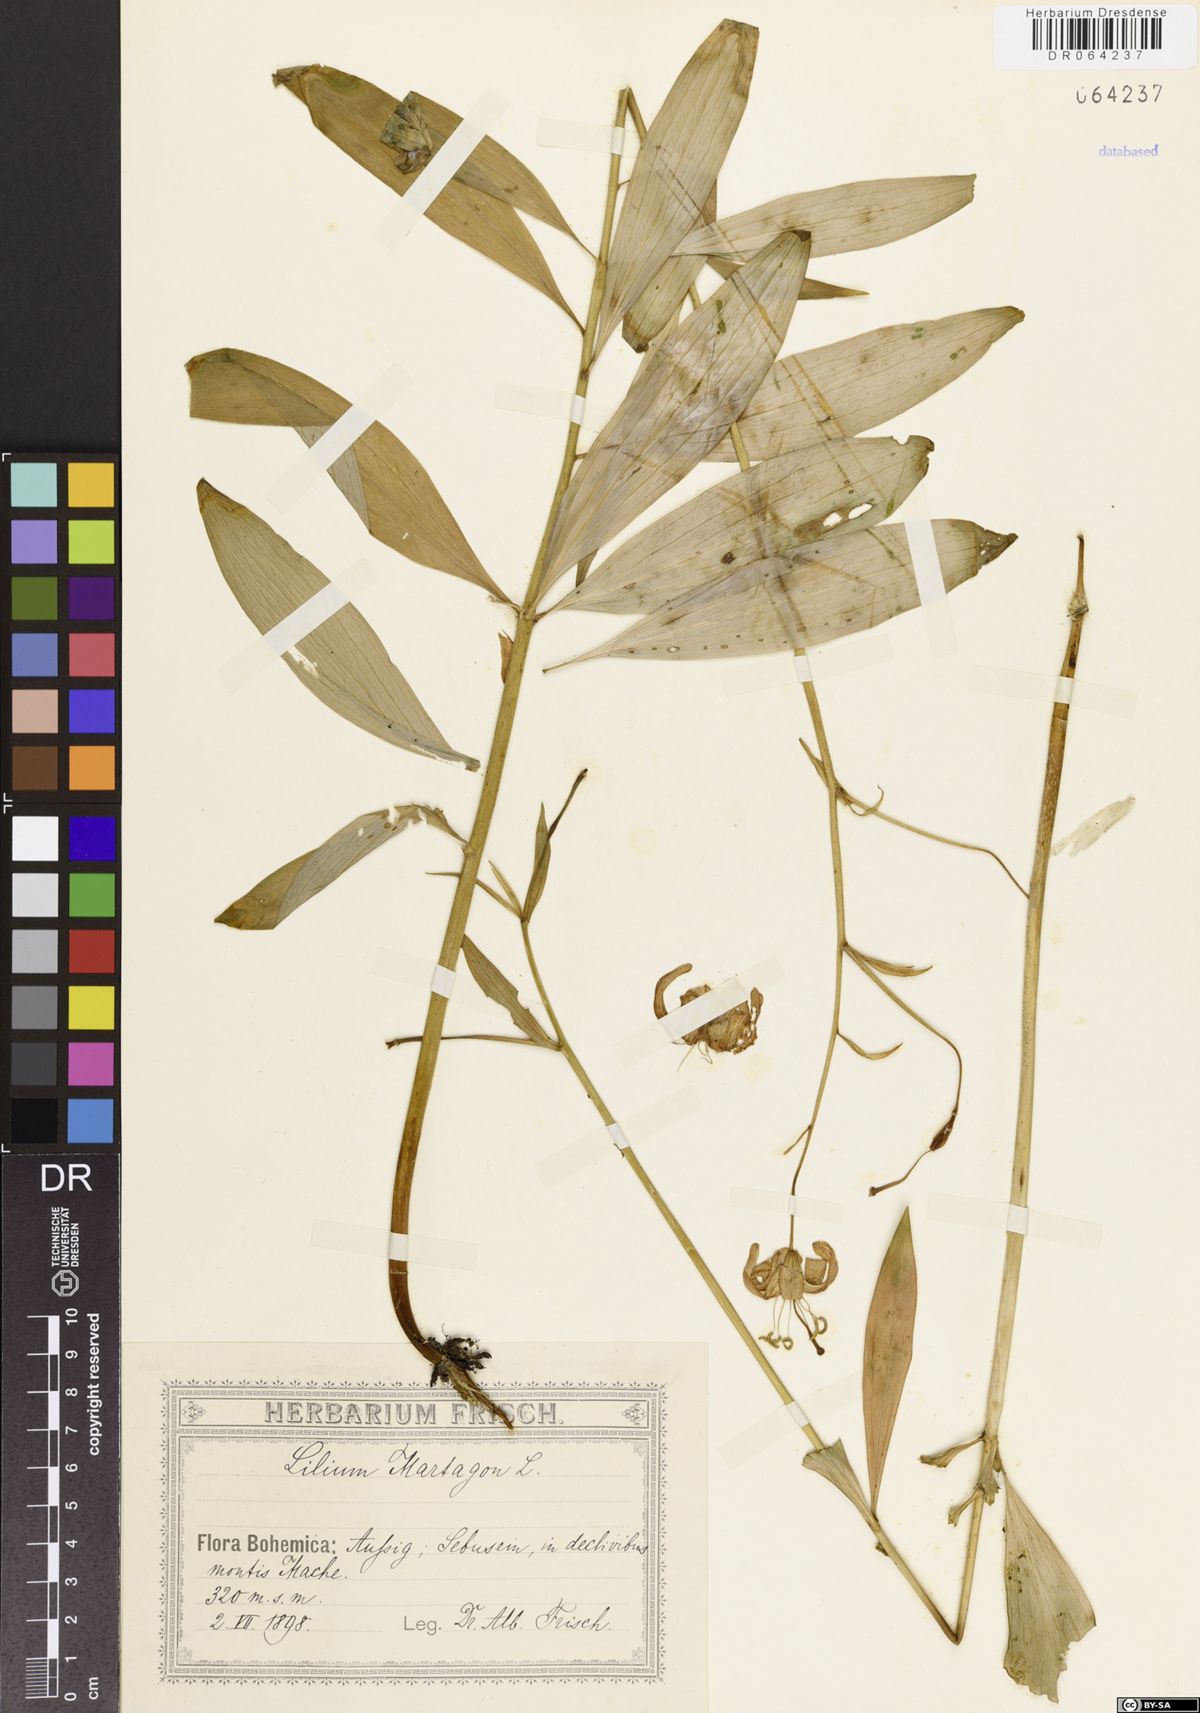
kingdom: Plantae
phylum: Tracheophyta
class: Liliopsida
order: Liliales
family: Liliaceae
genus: Lilium
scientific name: Lilium martagon
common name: Martagon lily
